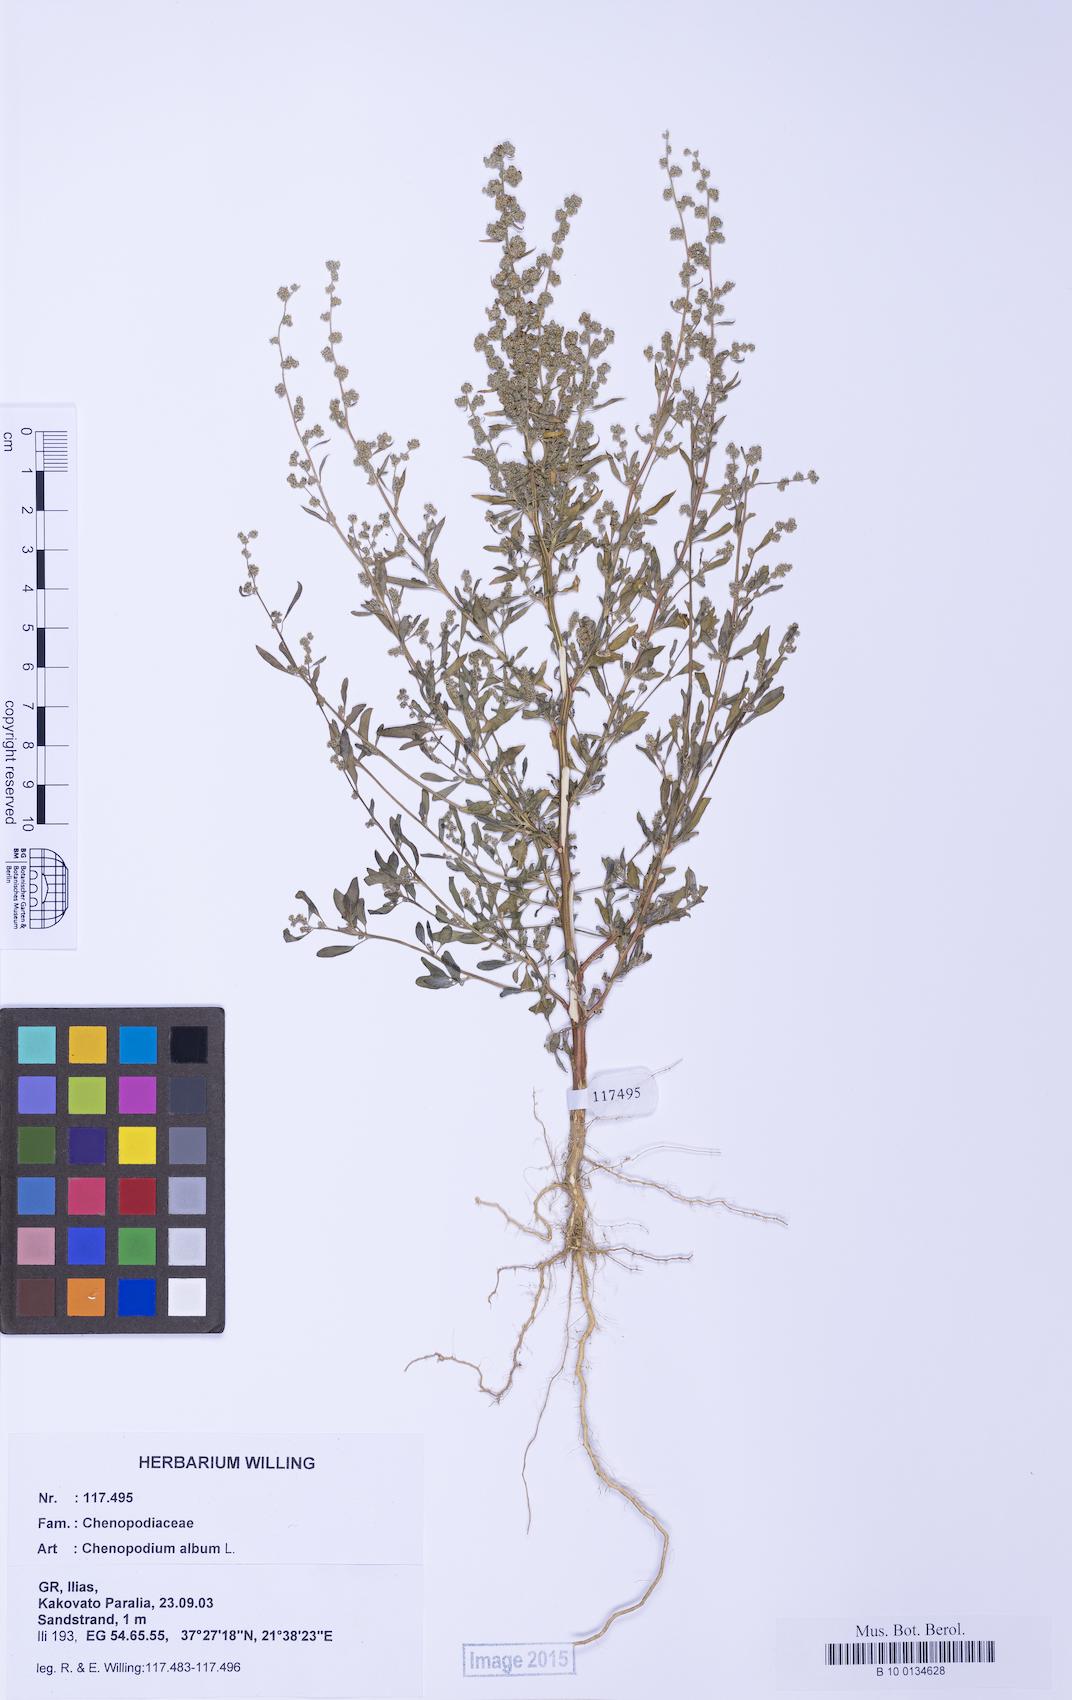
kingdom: Plantae
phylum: Tracheophyta
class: Magnoliopsida
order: Caryophyllales
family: Amaranthaceae
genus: Chenopodium
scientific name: Chenopodium striatiforme
